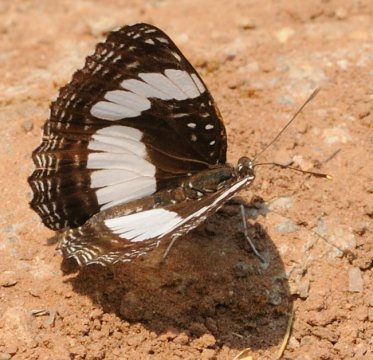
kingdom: Animalia
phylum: Arthropoda
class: Insecta
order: Lepidoptera
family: Nymphalidae
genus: Neptis
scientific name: Neptis serena
